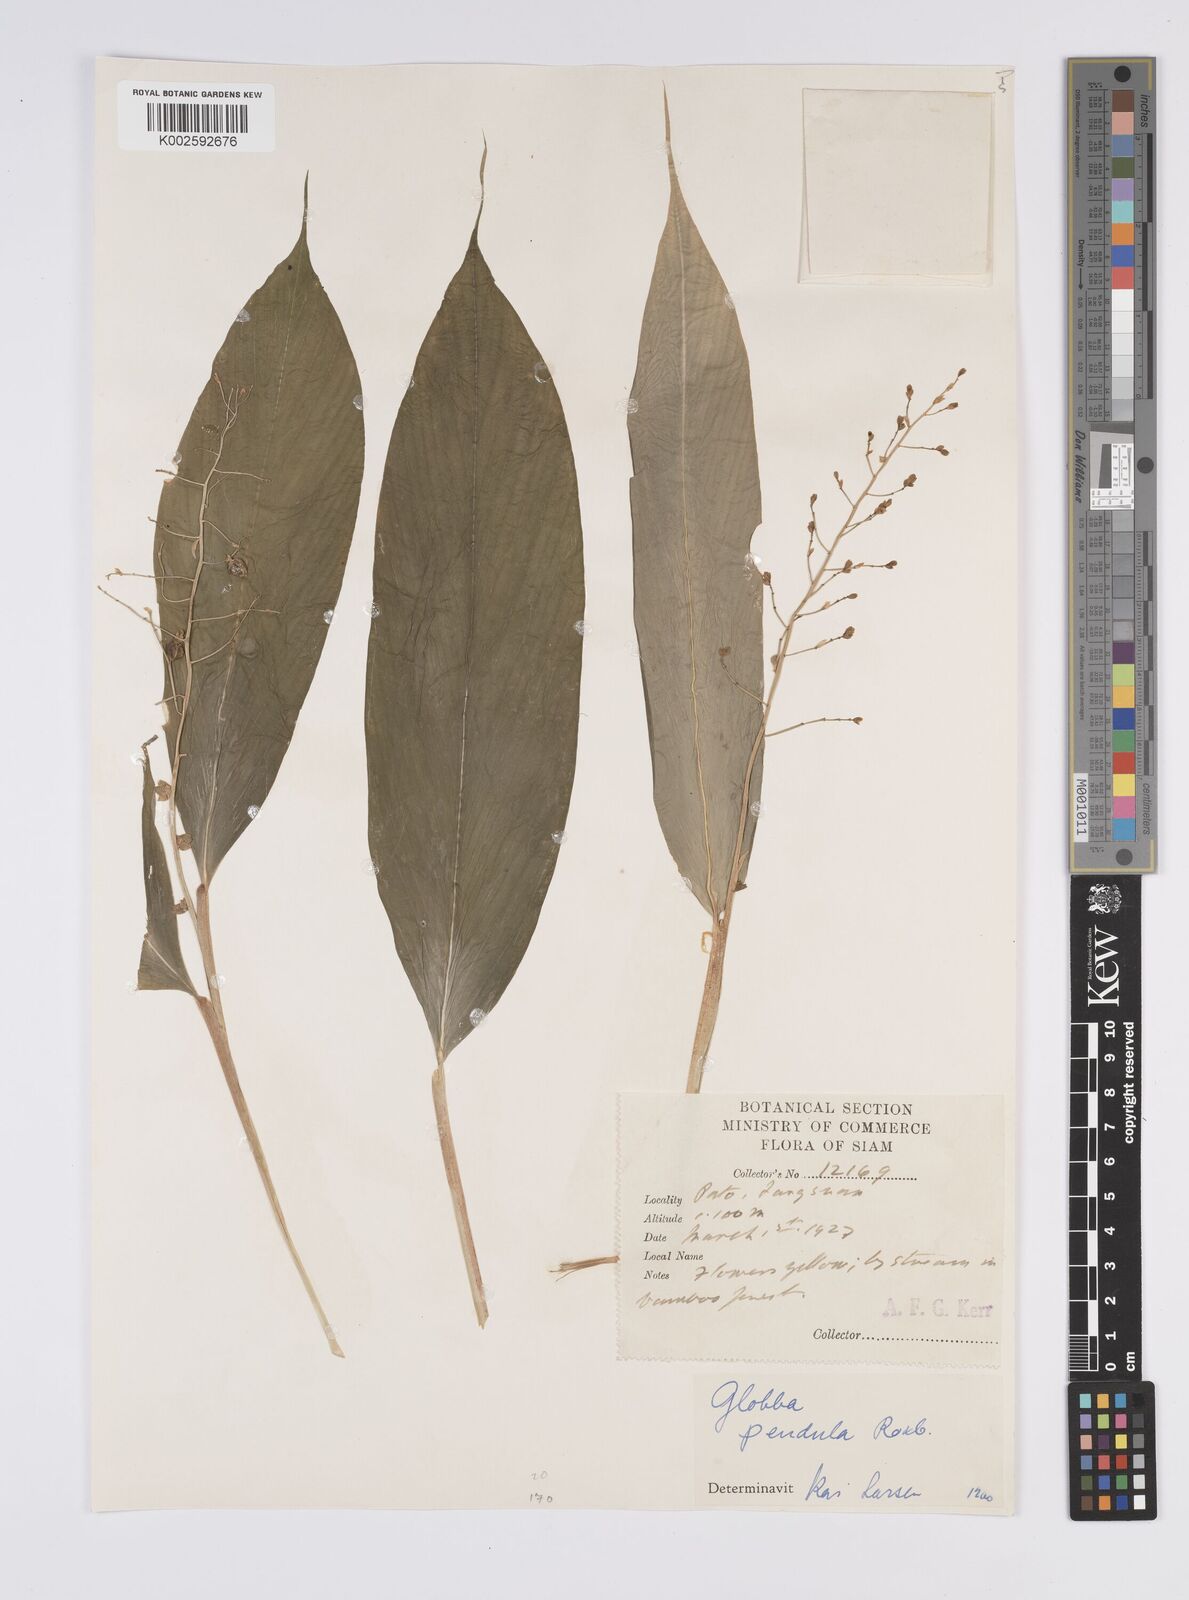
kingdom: Plantae
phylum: Tracheophyta
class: Liliopsida
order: Zingiberales
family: Zingiberaceae
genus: Globba
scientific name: Globba pendula
